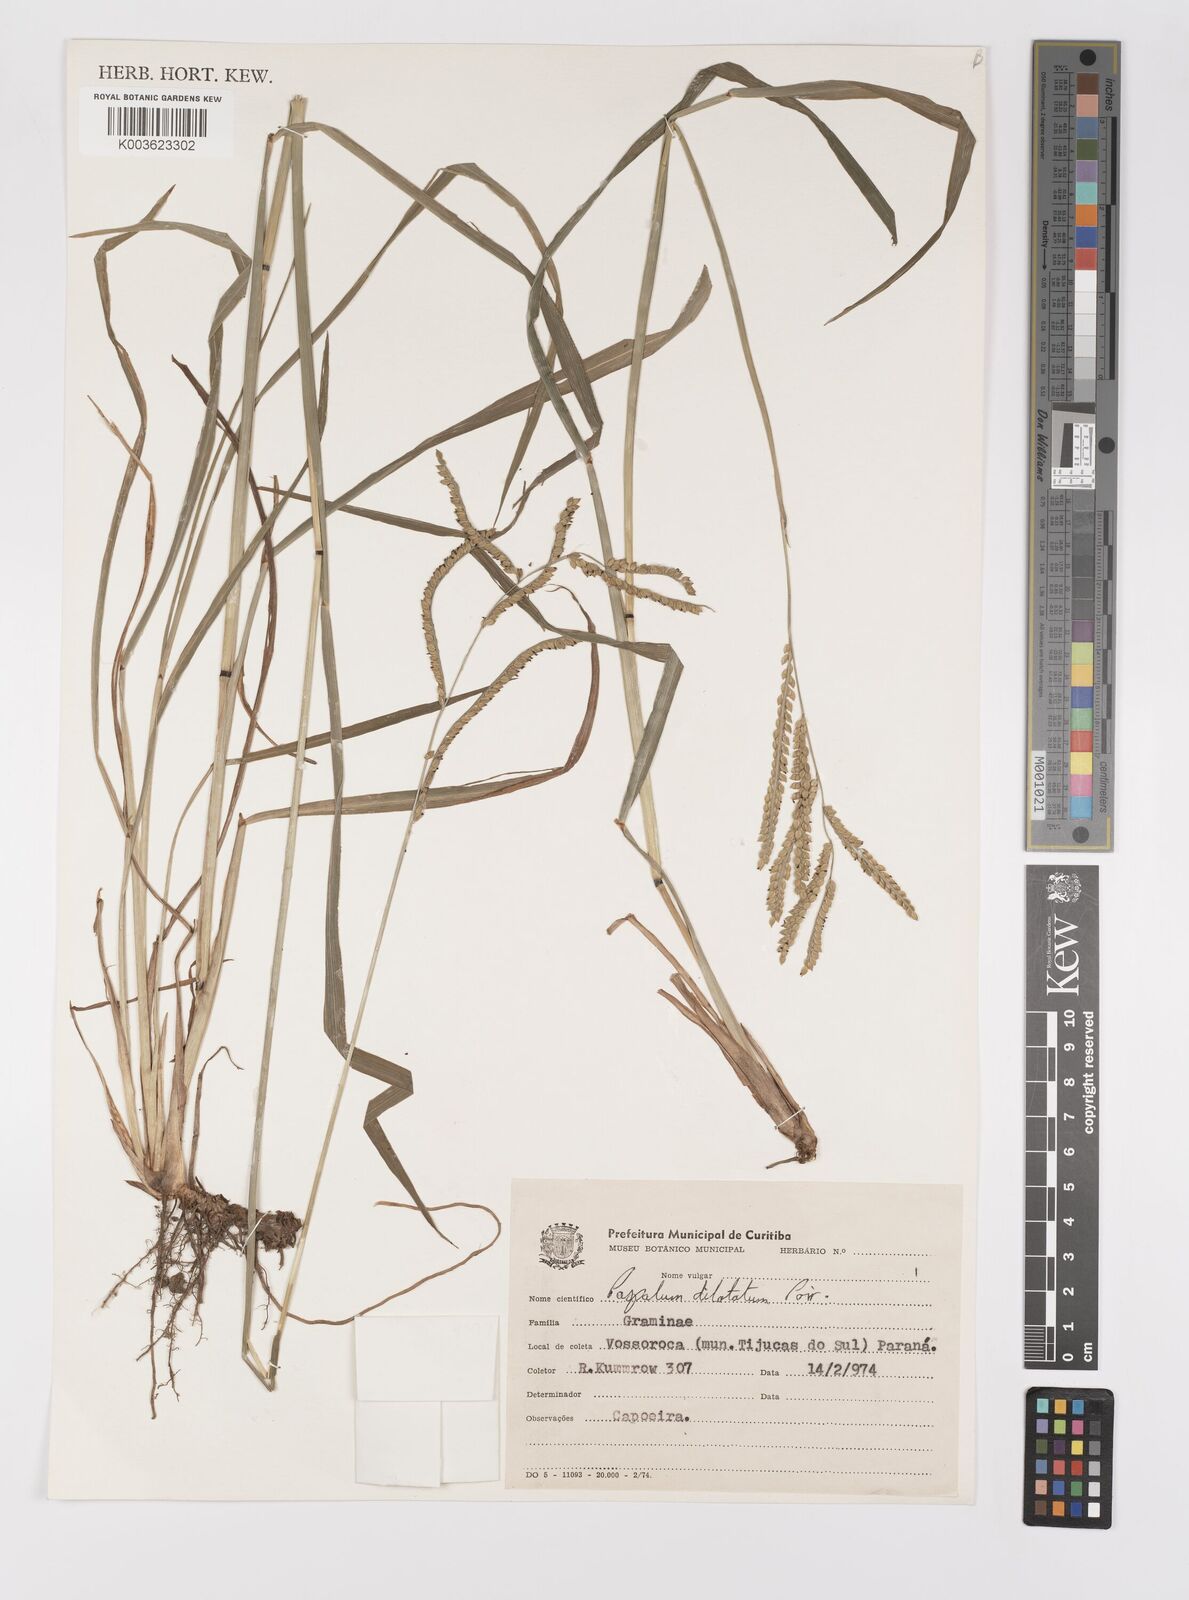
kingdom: Plantae
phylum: Tracheophyta
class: Liliopsida
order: Poales
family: Poaceae
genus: Paspalum
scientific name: Paspalum dilatatum
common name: Dallisgrass
